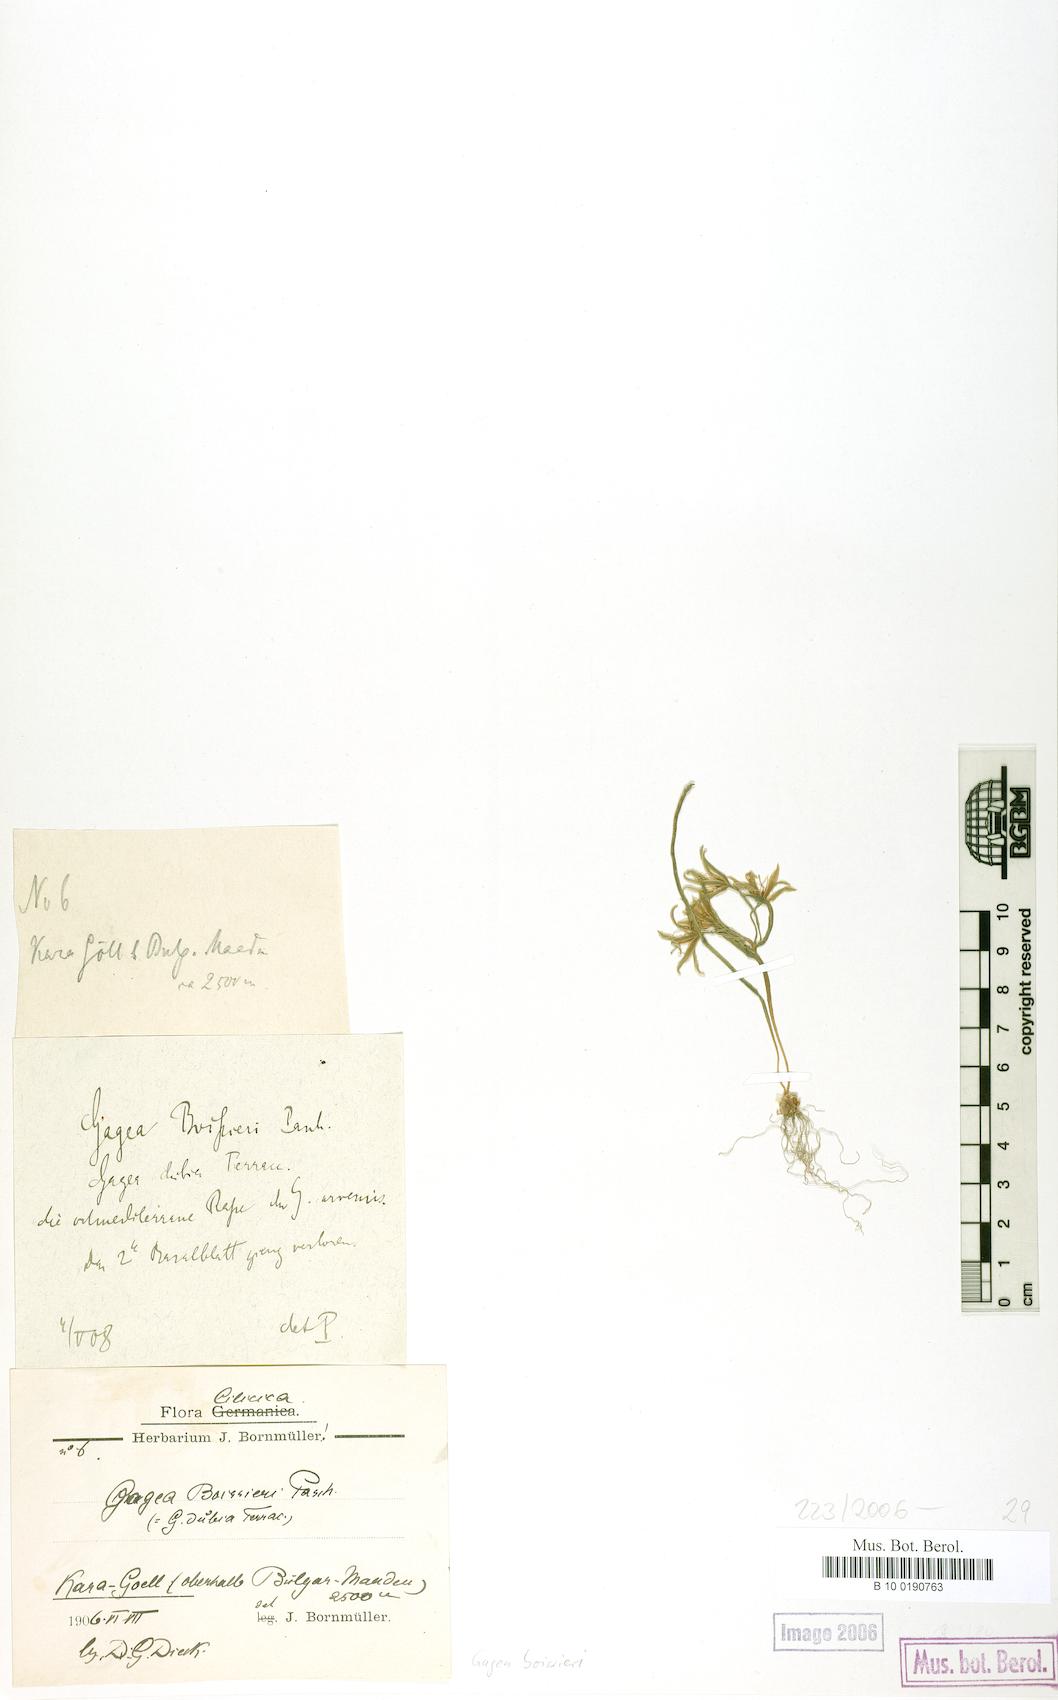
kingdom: Plantae
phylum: Tracheophyta
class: Liliopsida
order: Liliales
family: Liliaceae
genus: Gagea
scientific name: Gagea villosa
